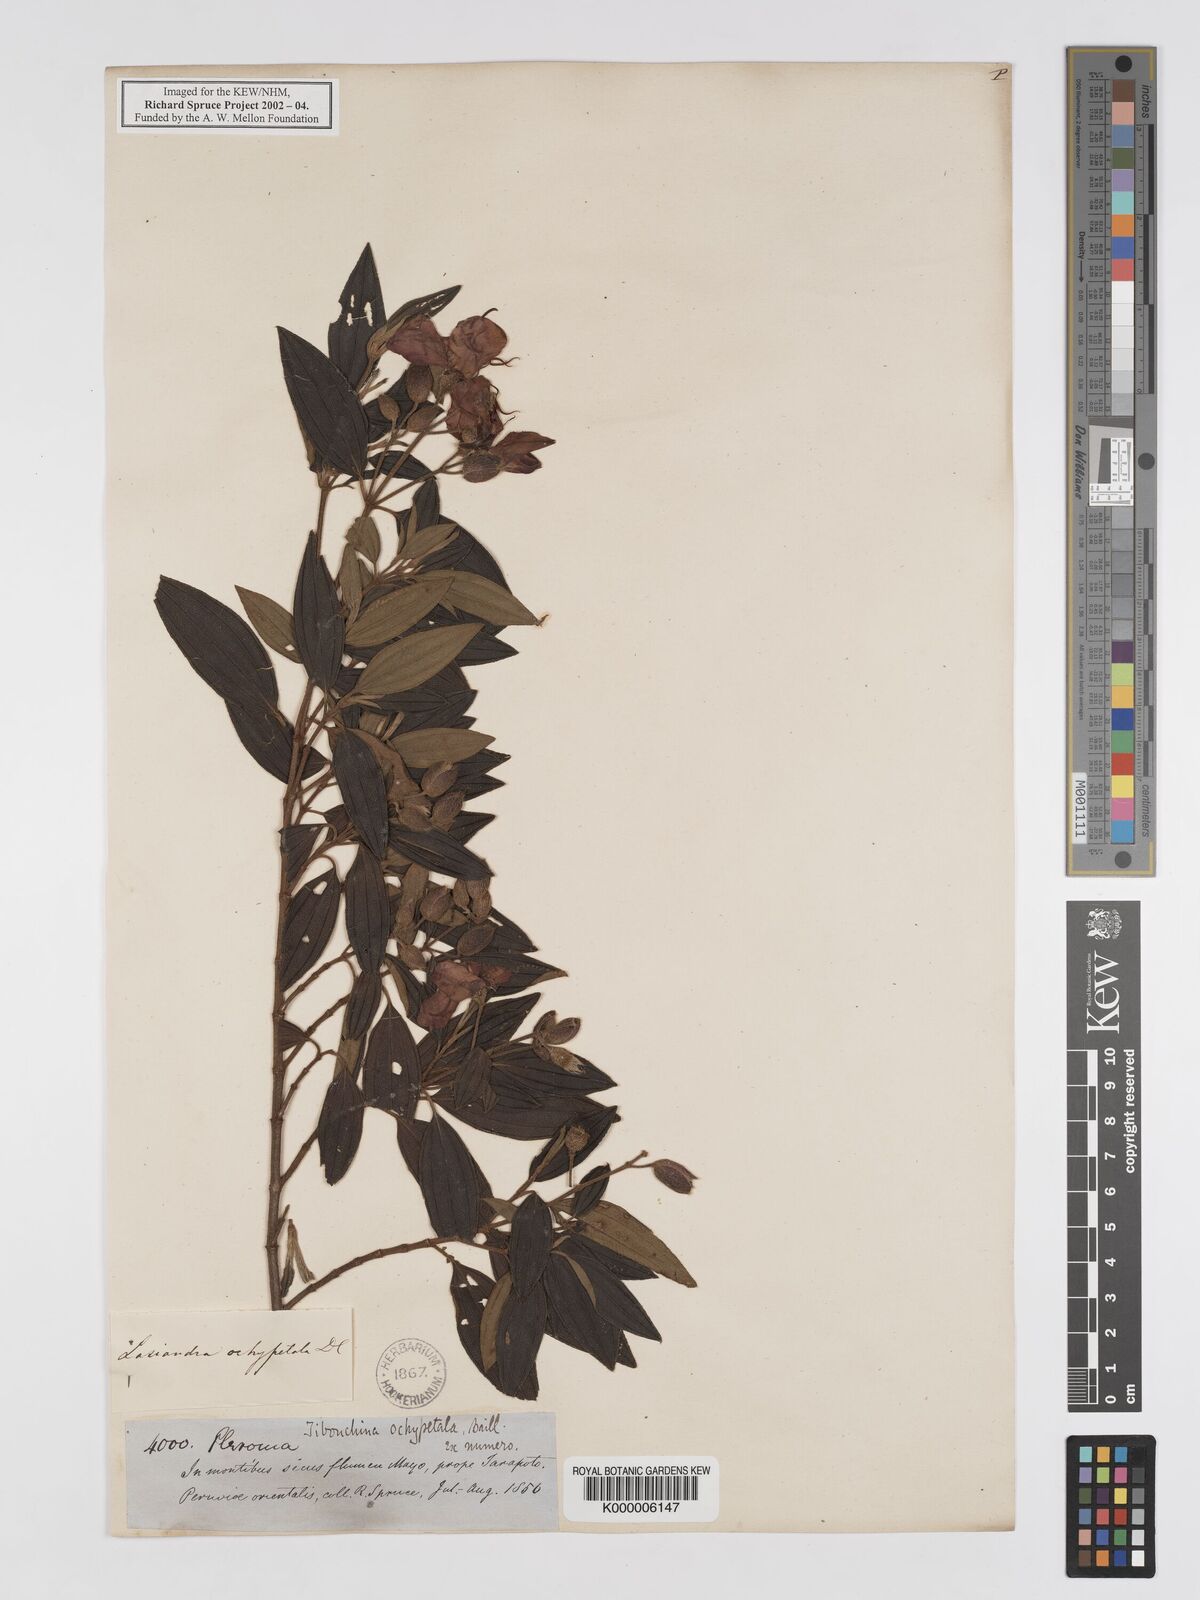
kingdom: Plantae
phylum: Tracheophyta
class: Magnoliopsida
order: Myrtales
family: Melastomataceae
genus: Pleroma
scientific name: Pleroma ochypetalum
